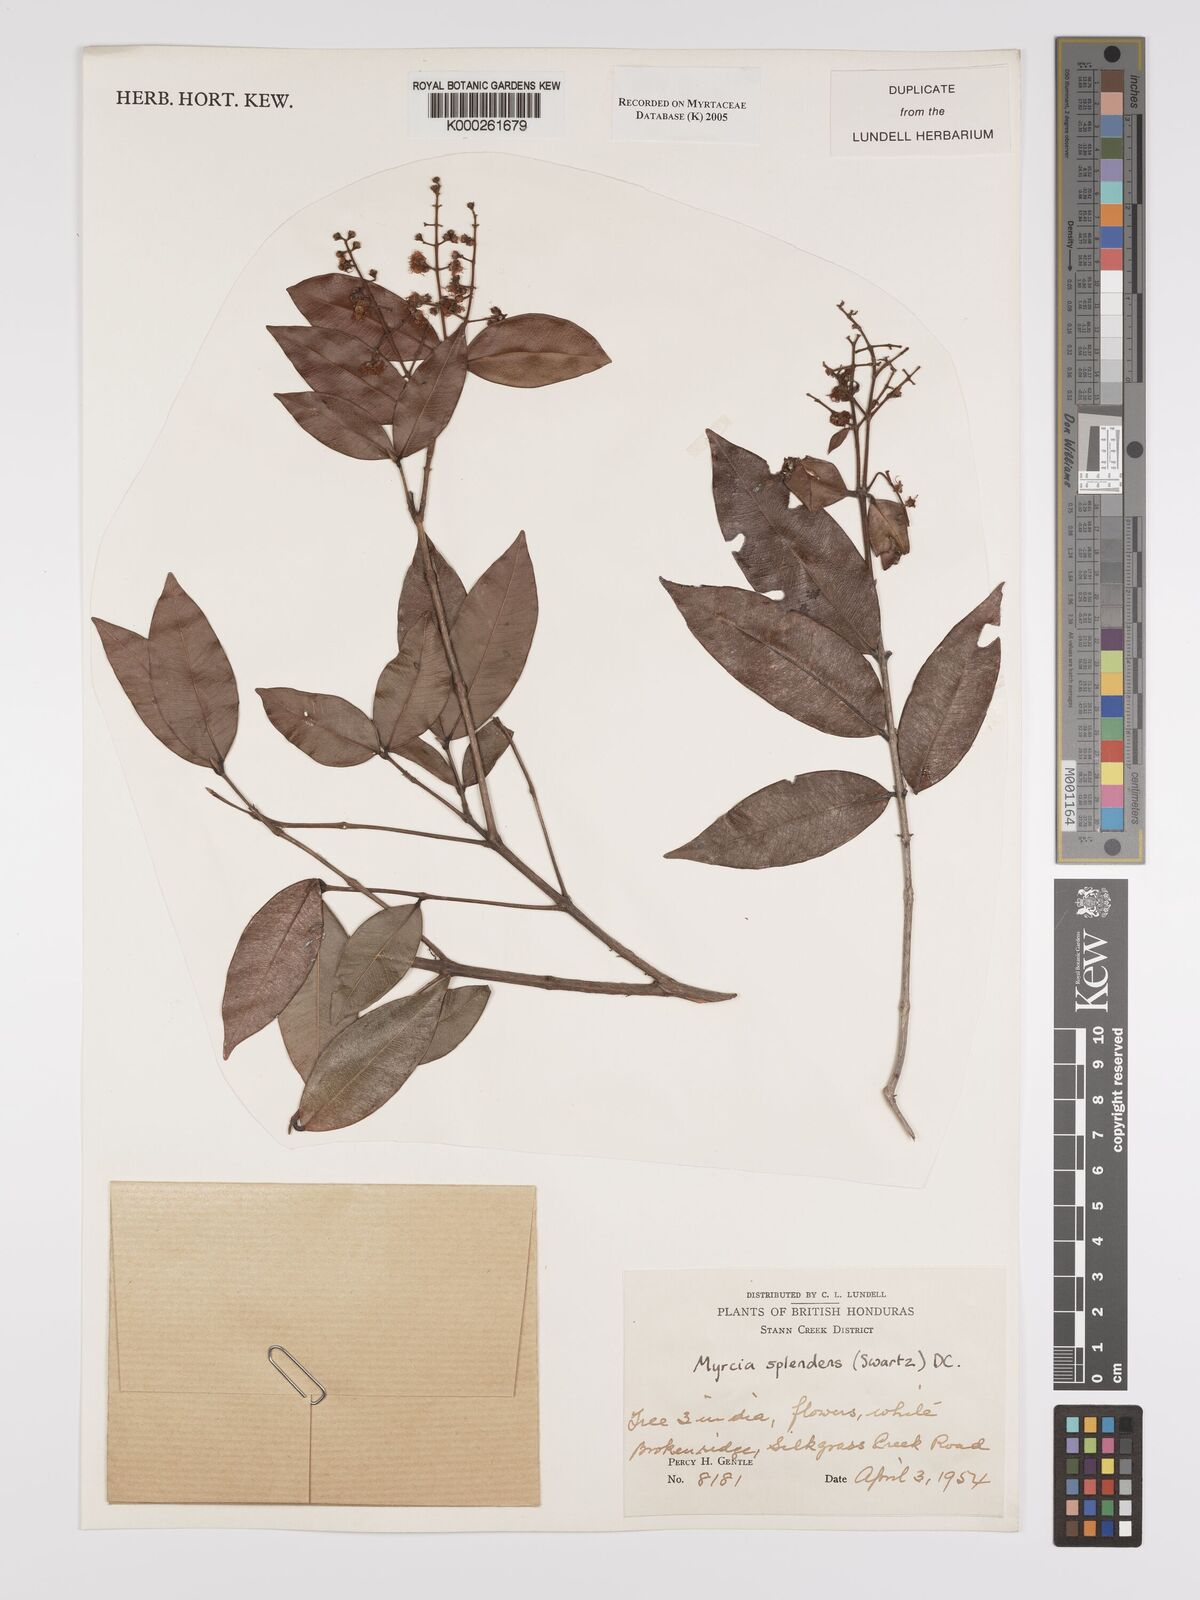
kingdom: Plantae
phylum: Tracheophyta
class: Magnoliopsida
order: Myrtales
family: Myrtaceae
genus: Myrcia
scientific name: Myrcia splendens
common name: Surinam cherry
